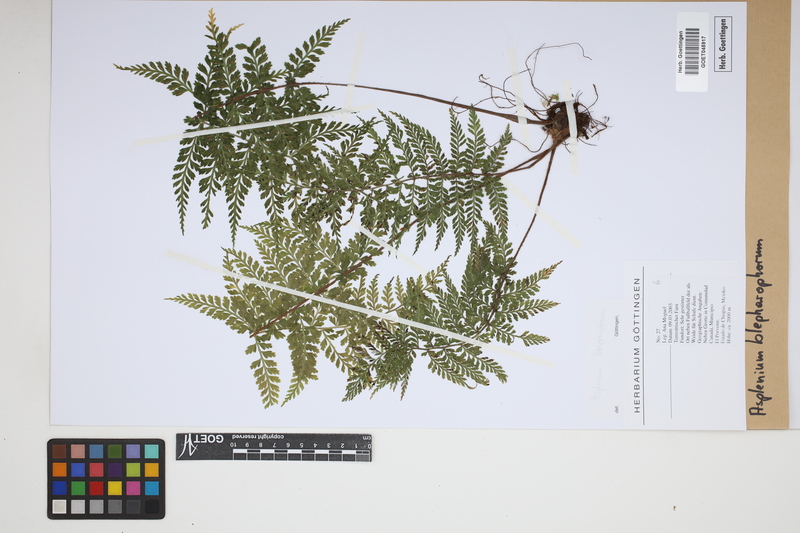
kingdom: Plantae
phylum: Tracheophyta
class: Polypodiopsida
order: Polypodiales
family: Aspleniaceae
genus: Asplenium
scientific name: Asplenium blepharophorum
